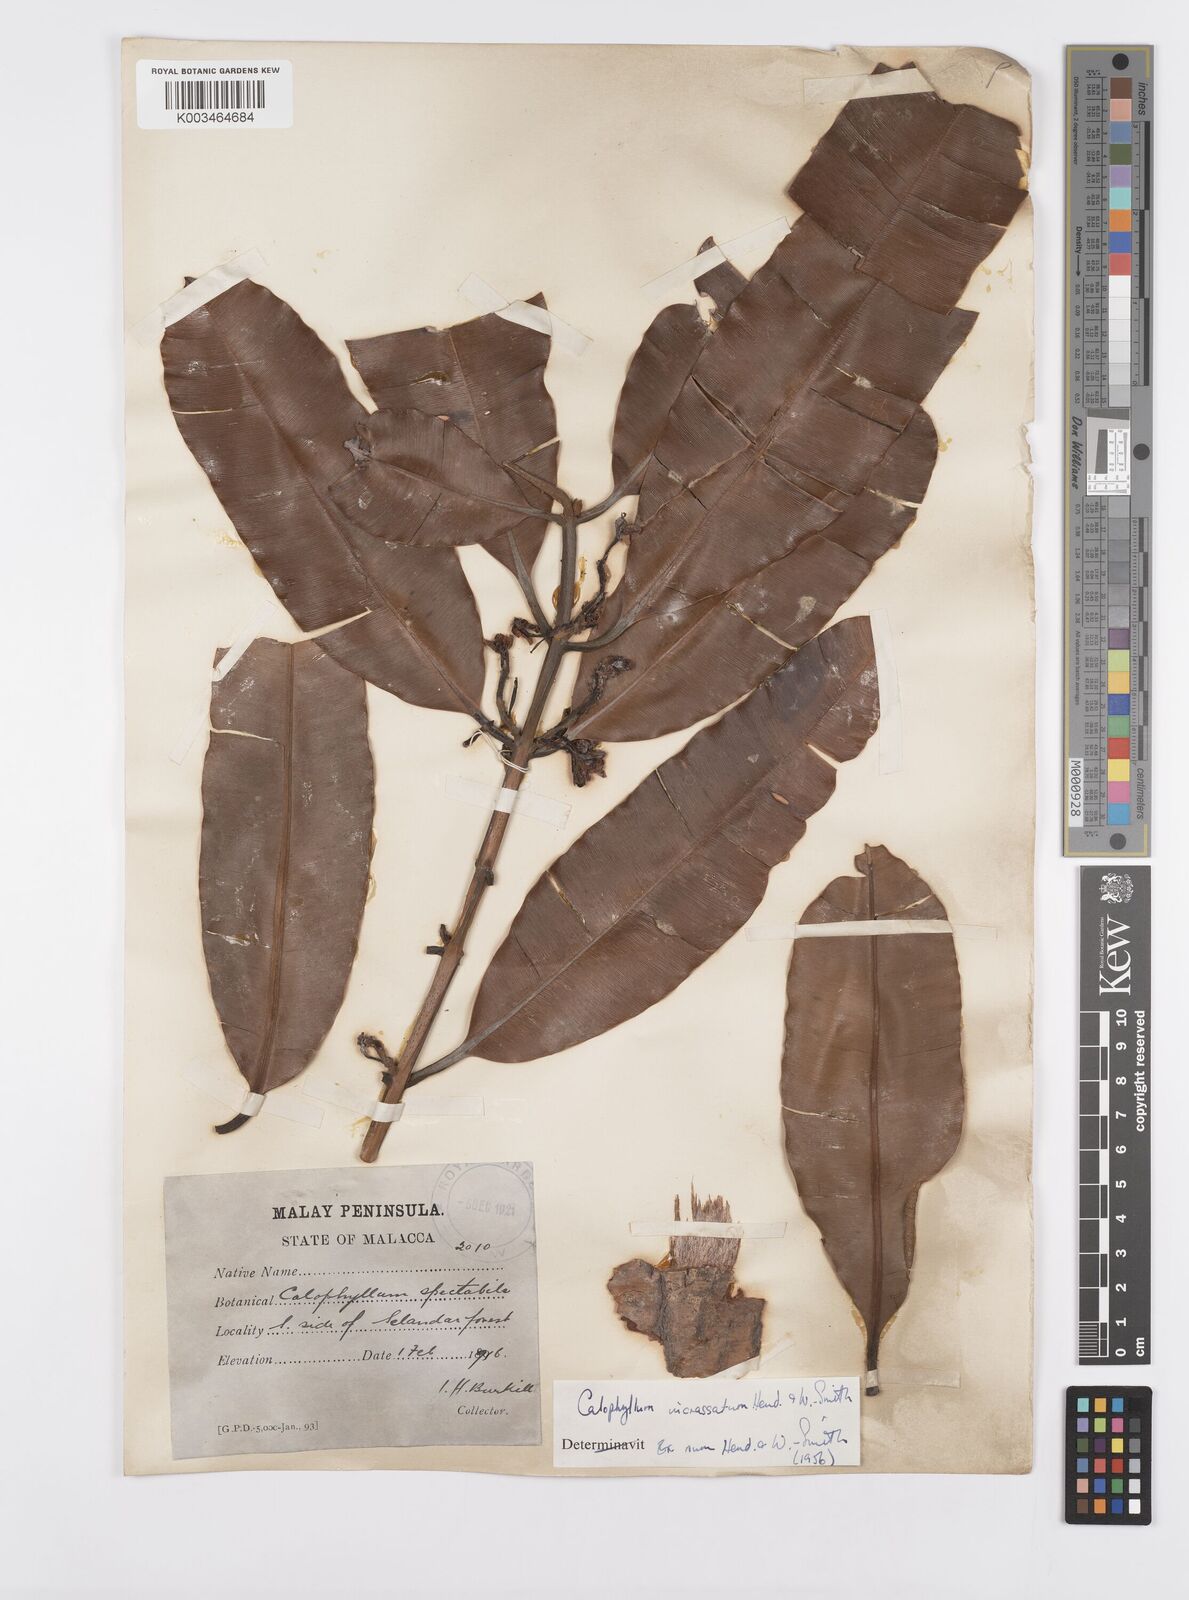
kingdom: Plantae
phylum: Tracheophyta
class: Magnoliopsida
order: Malpighiales
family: Calophyllaceae
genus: Calophyllum
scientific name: Calophyllum wallichiana
